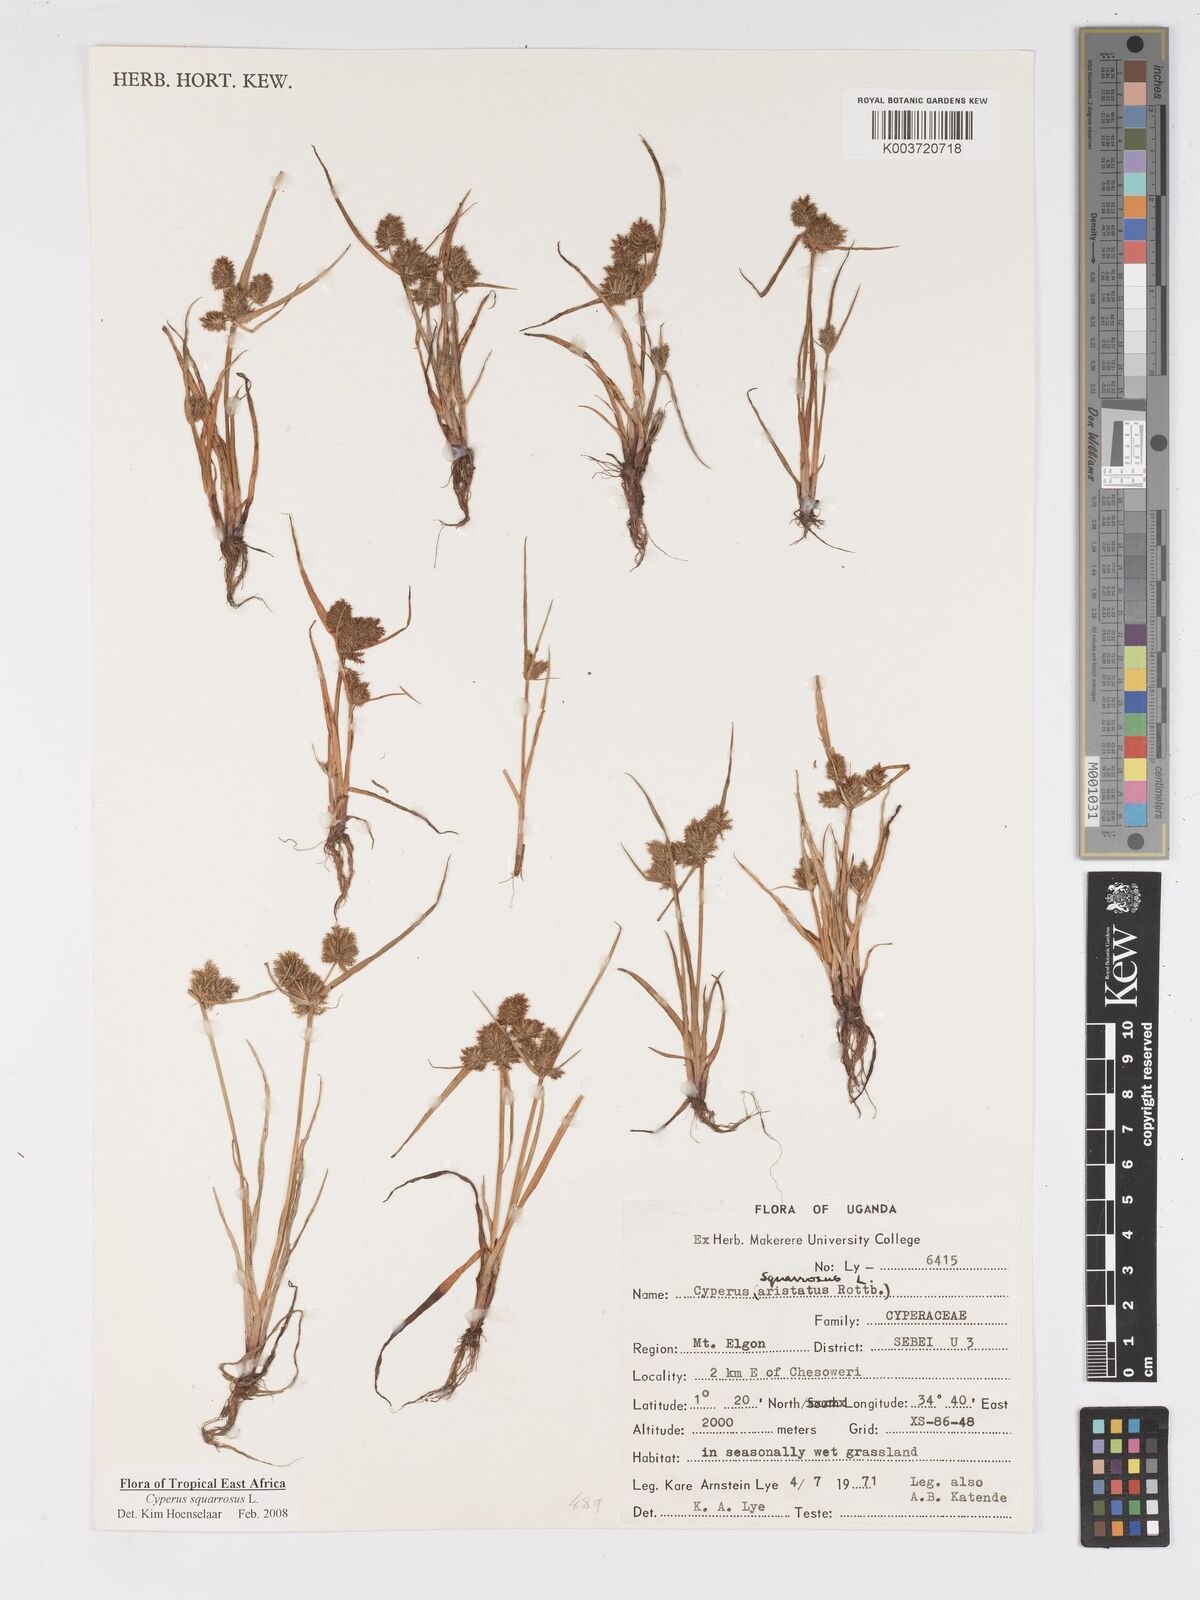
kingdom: Plantae
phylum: Tracheophyta
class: Liliopsida
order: Poales
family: Cyperaceae
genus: Cyperus
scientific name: Cyperus squarrosus
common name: Awned cyperus
